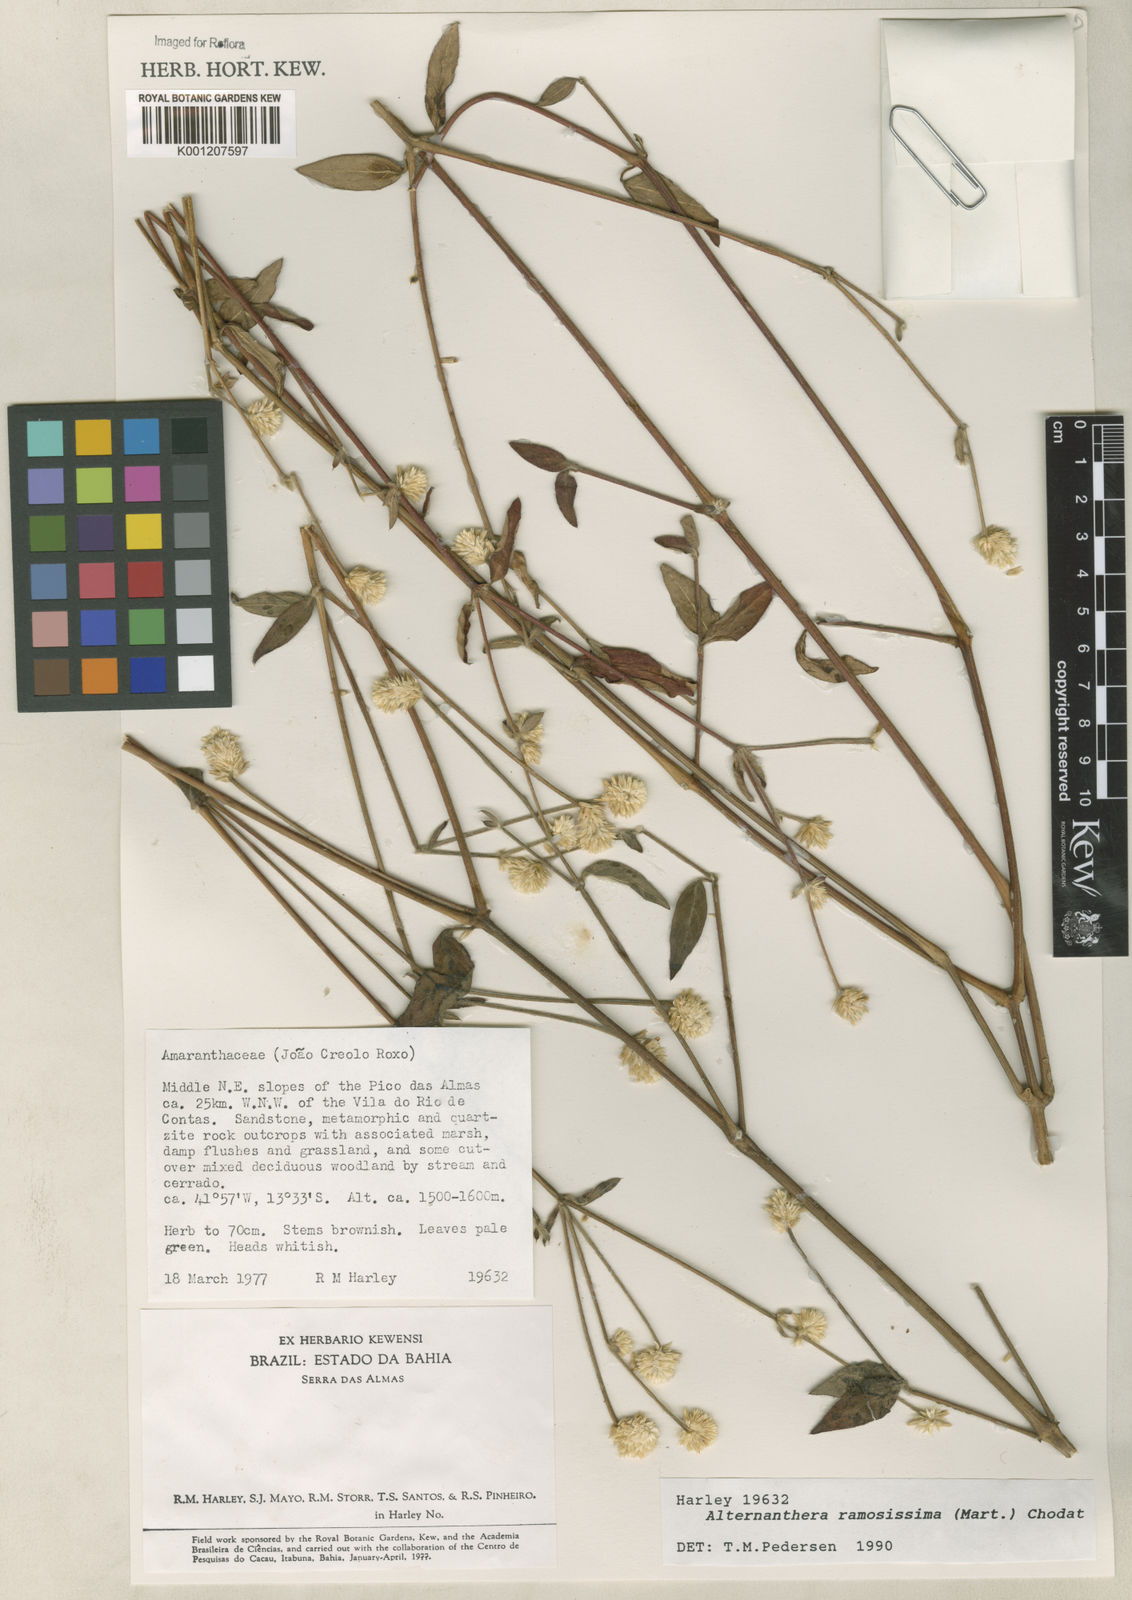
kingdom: Plantae
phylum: Tracheophyta
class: Magnoliopsida
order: Caryophyllales
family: Amaranthaceae
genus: Alternanthera
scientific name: Alternanthera ramosissima
